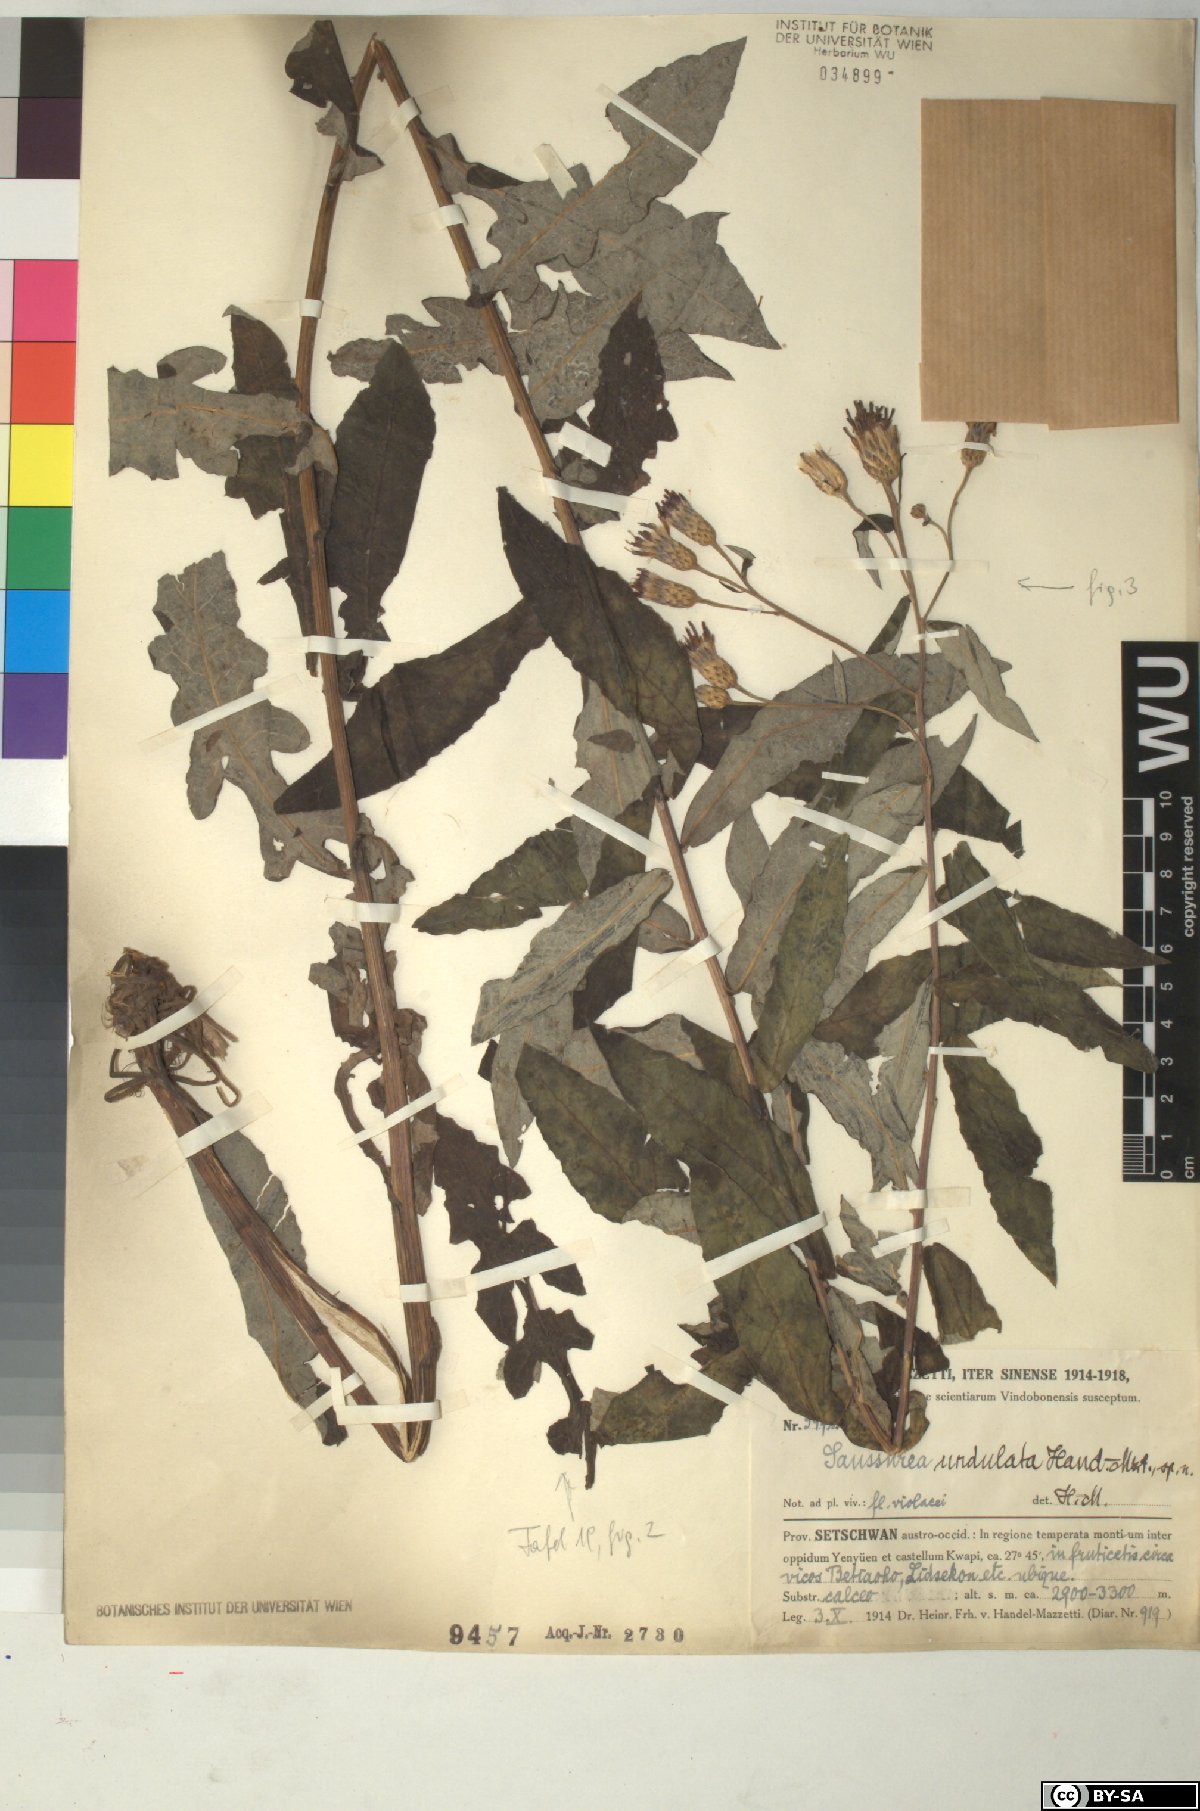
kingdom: Plantae
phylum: Tracheophyta
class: Magnoliopsida
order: Asterales
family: Asteraceae
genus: Saussurea
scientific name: Saussurea undulata
